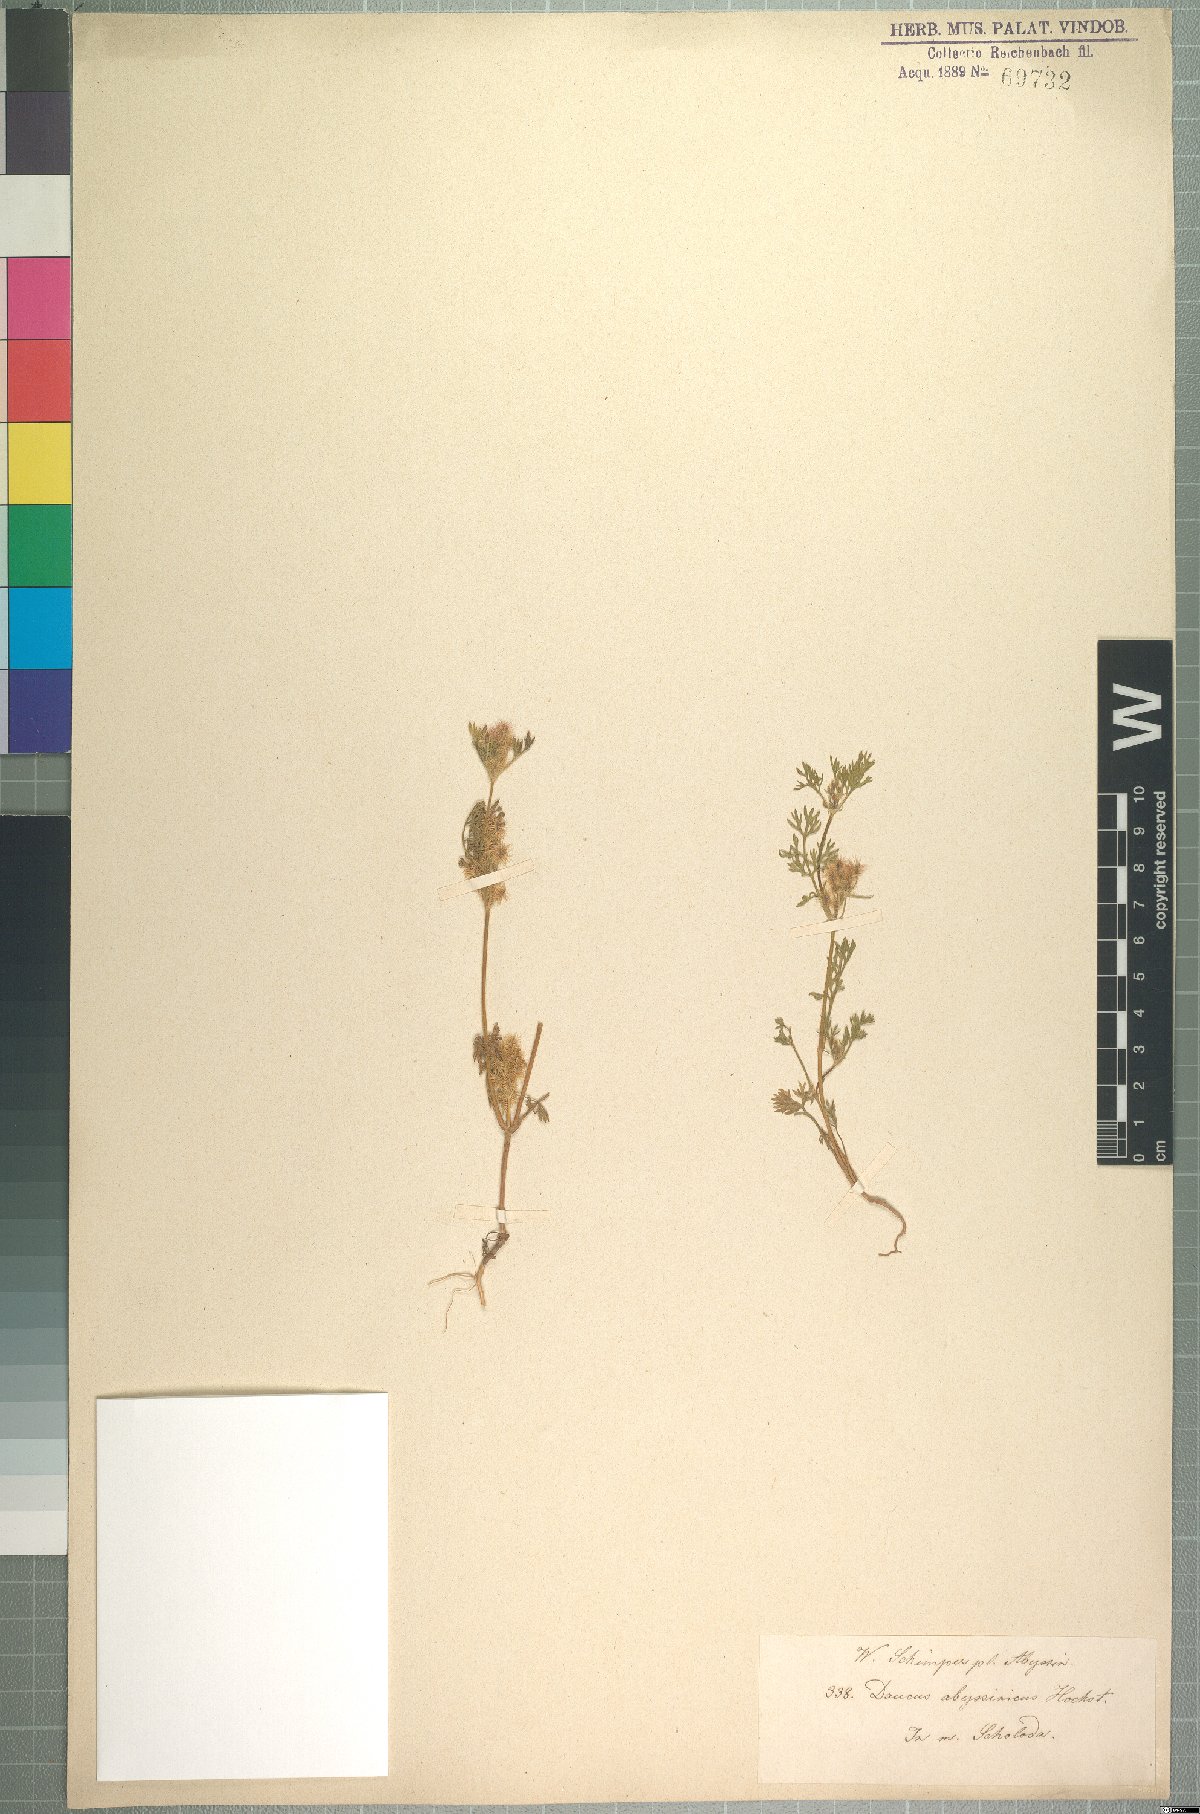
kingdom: Plantae
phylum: Tracheophyta
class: Magnoliopsida
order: Apiales
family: Apiaceae
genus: Daucus
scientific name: Daucus hochstetteri
